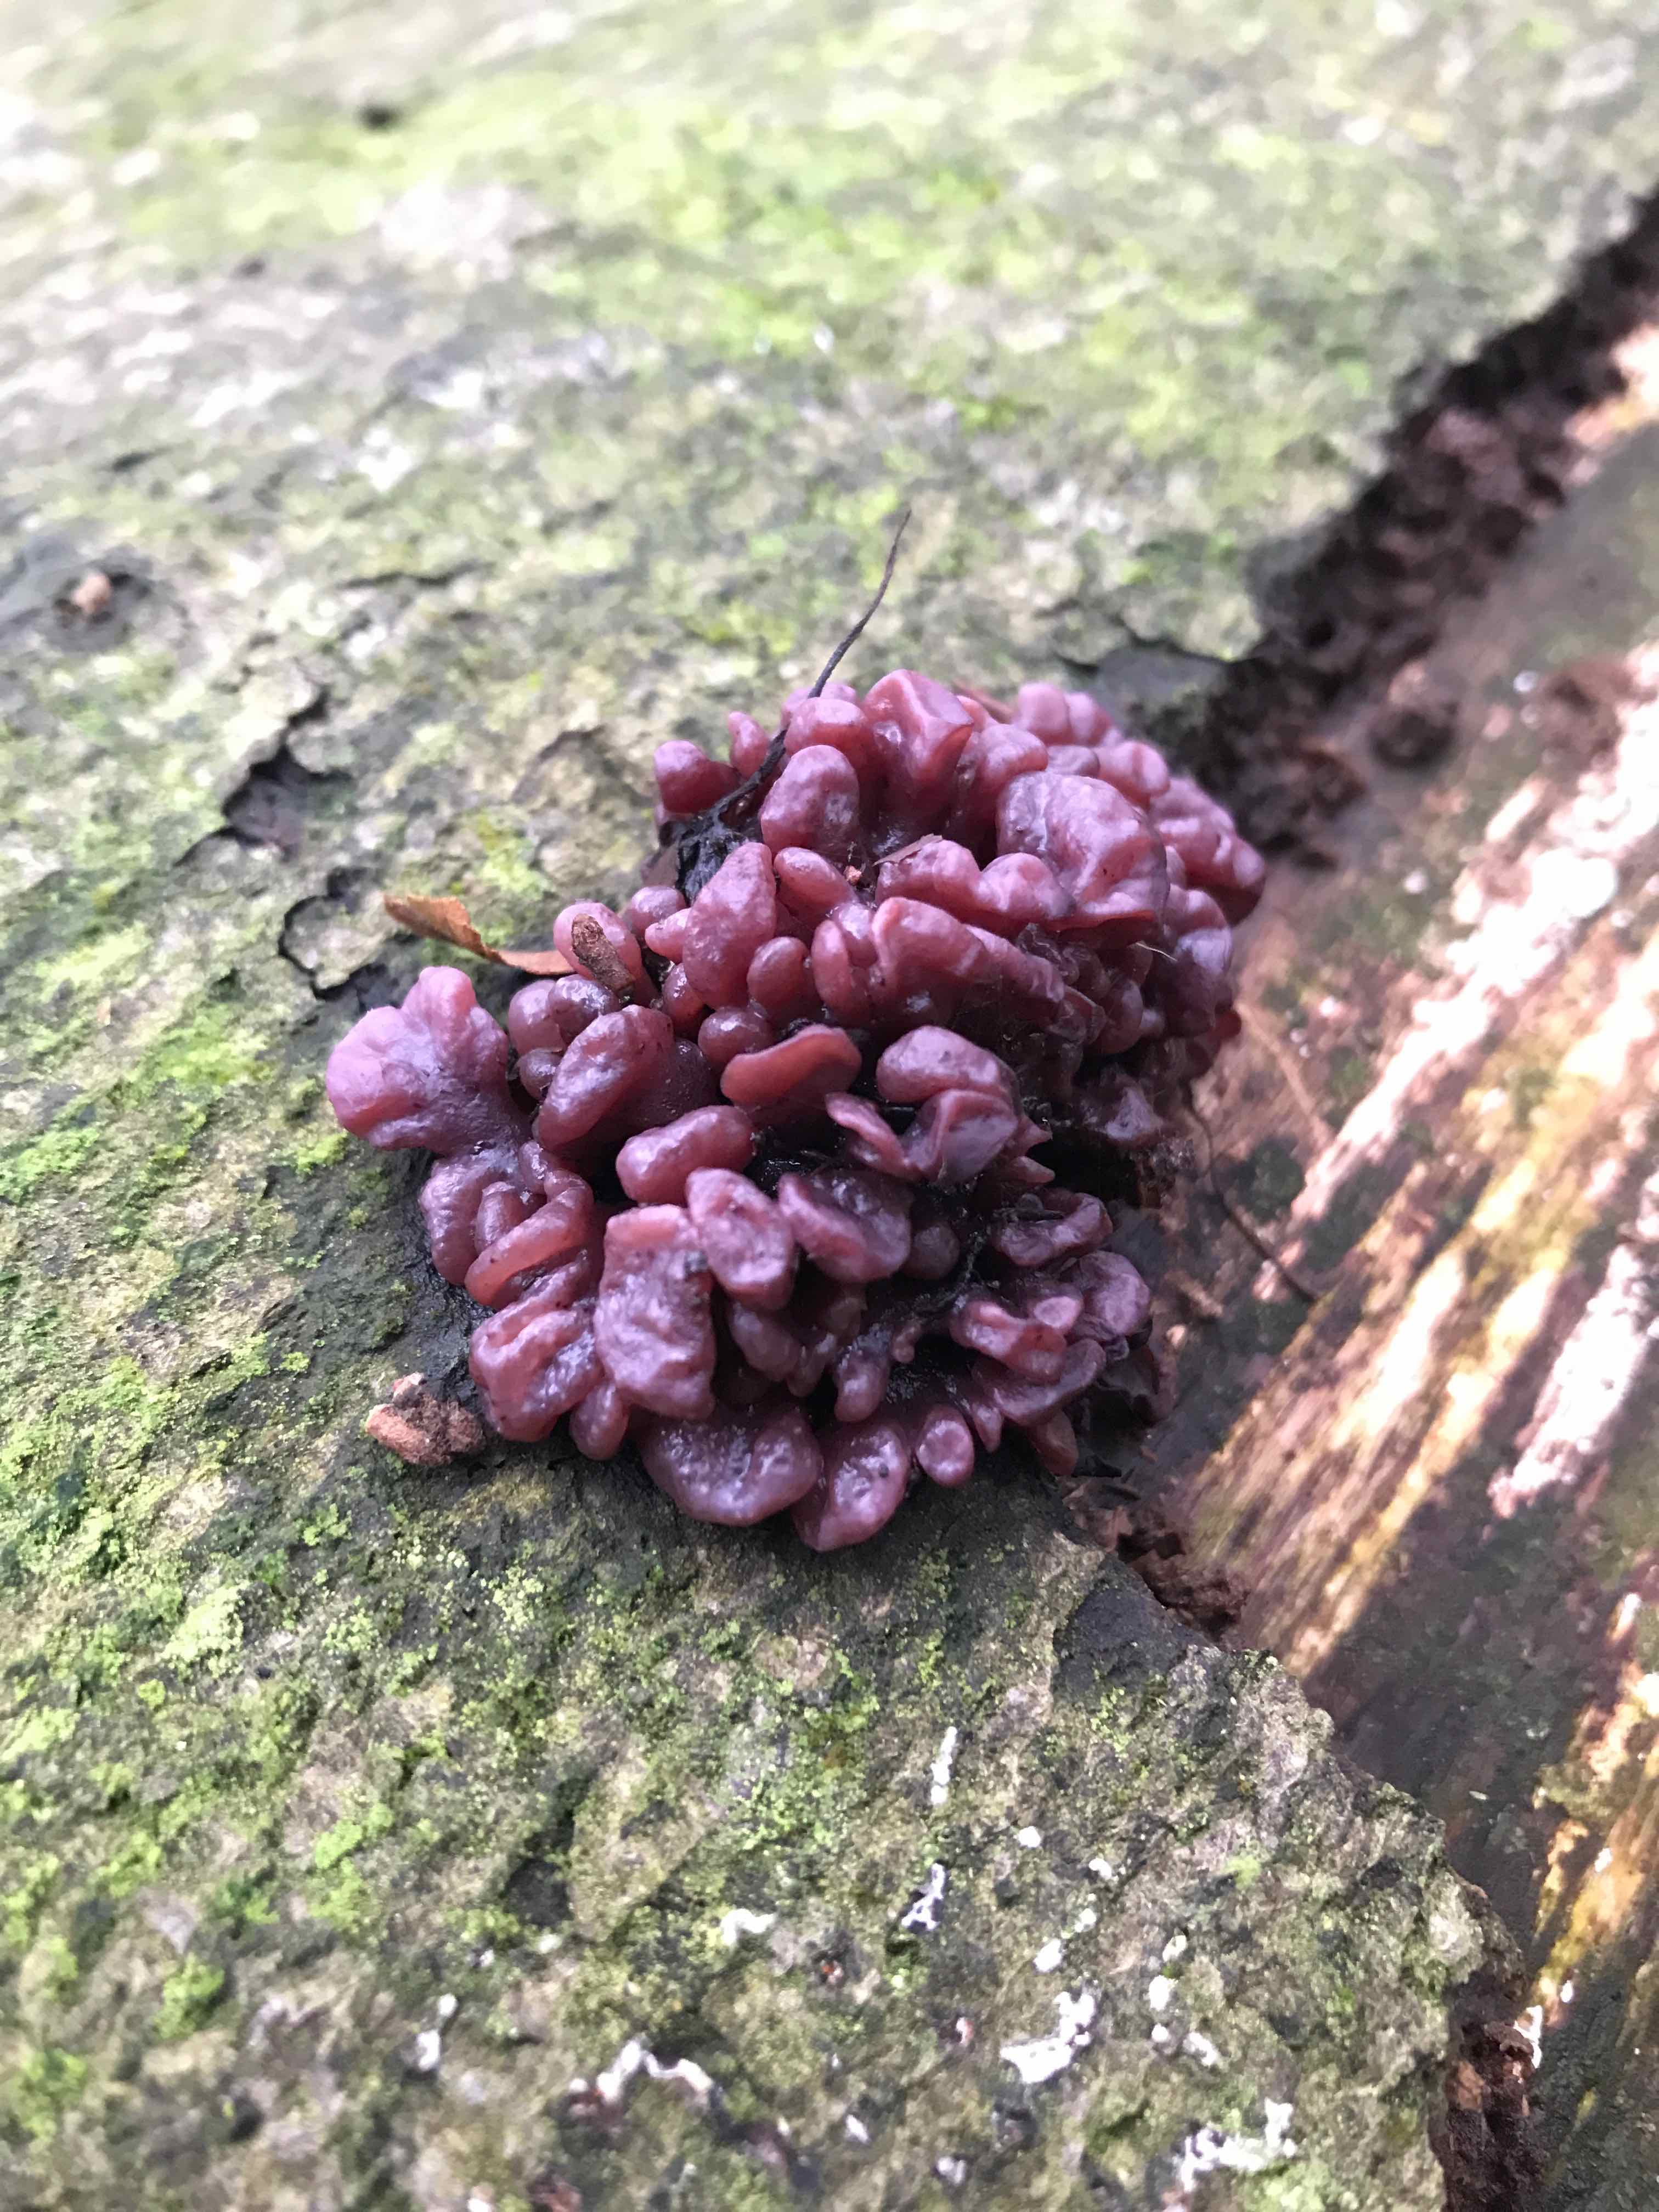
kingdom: Fungi
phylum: Ascomycota
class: Leotiomycetes
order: Helotiales
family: Gelatinodiscaceae
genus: Ascocoryne
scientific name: Ascocoryne sarcoides
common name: rødlilla sejskive
